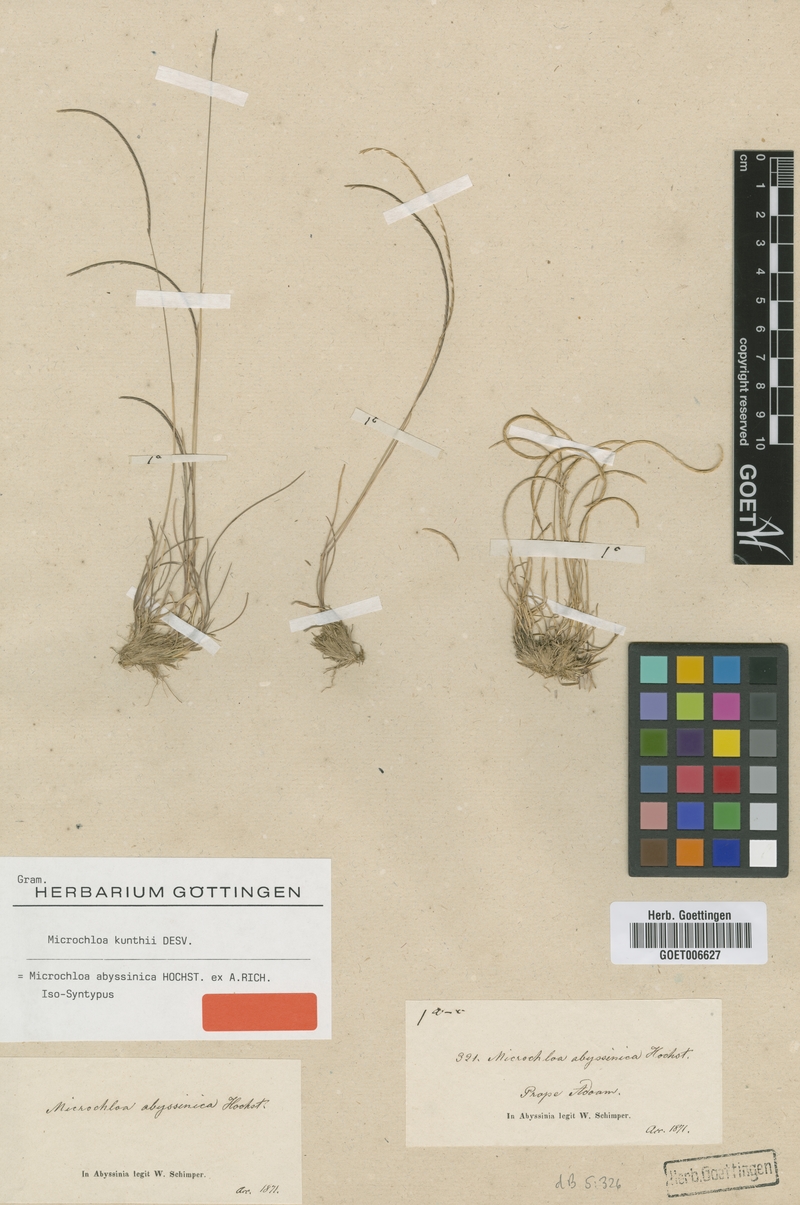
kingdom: Plantae
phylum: Tracheophyta
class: Liliopsida
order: Poales
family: Poaceae
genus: Microchloa
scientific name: Microchloa kunthii
